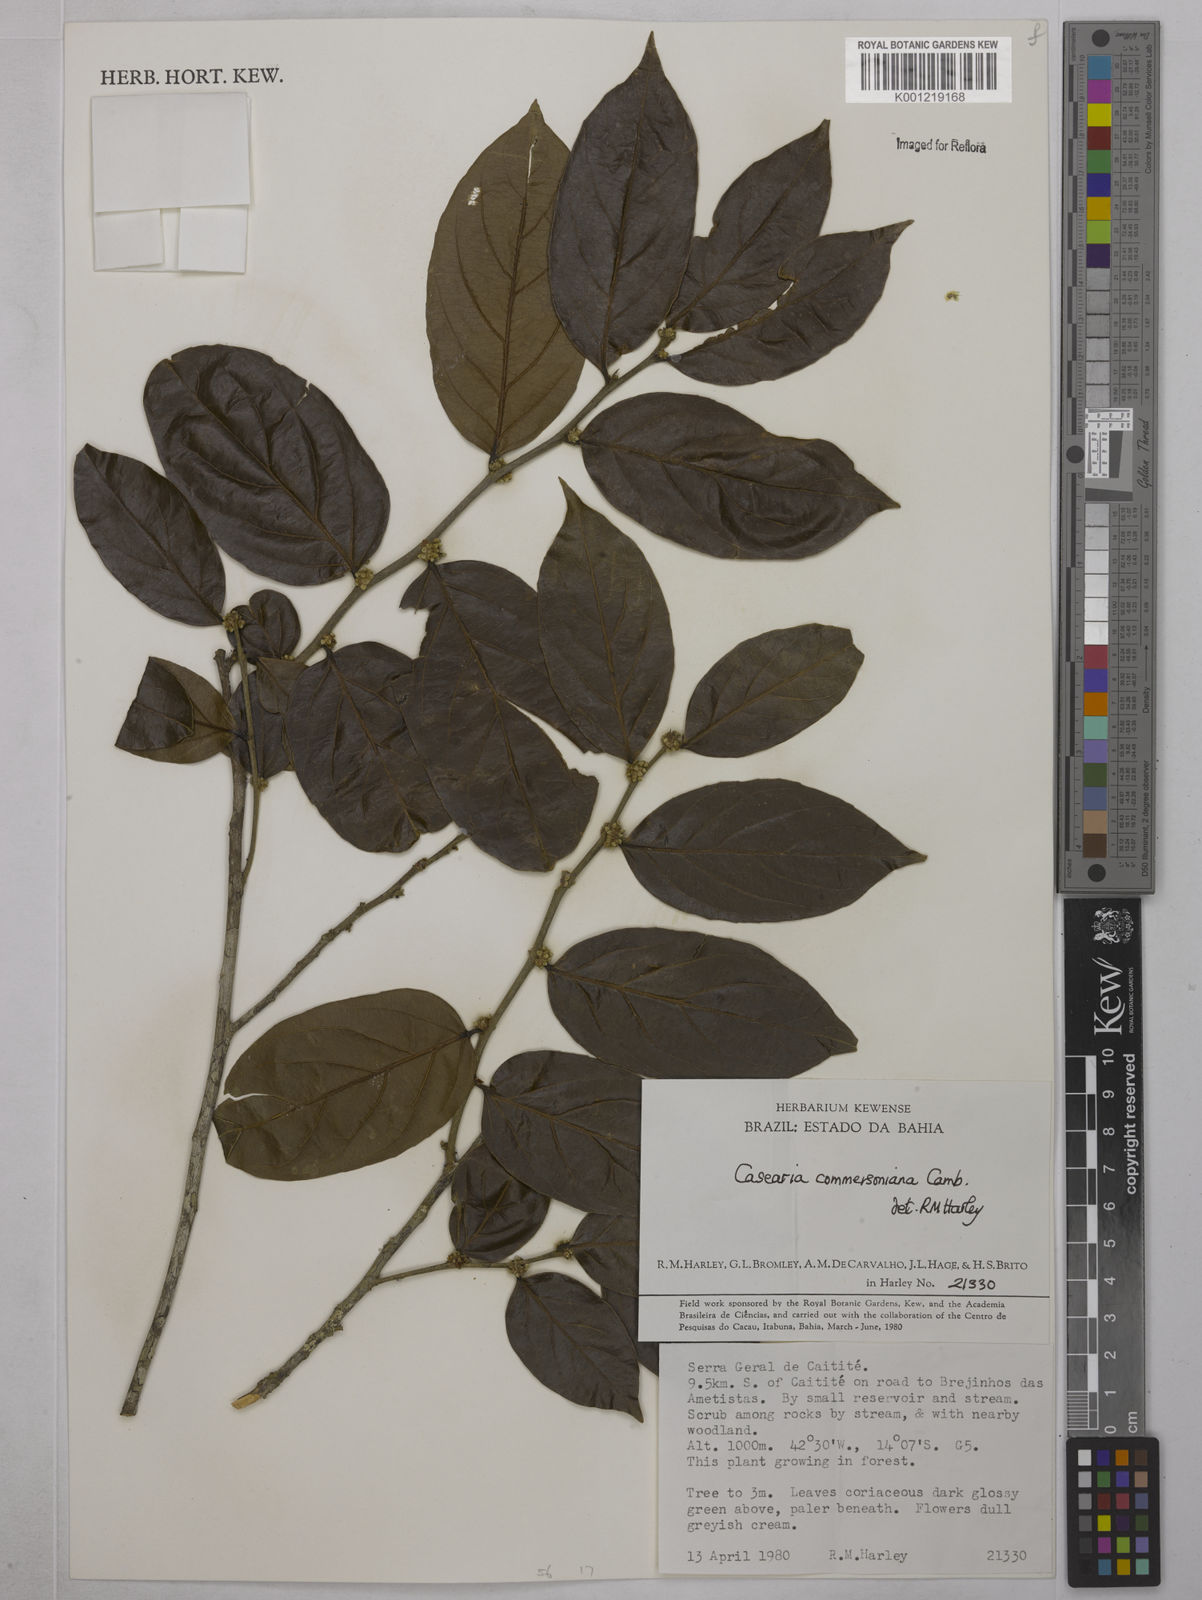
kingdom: Plantae
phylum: Tracheophyta
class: Magnoliopsida
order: Malpighiales
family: Salicaceae
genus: Piparea
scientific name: Piparea dentata
